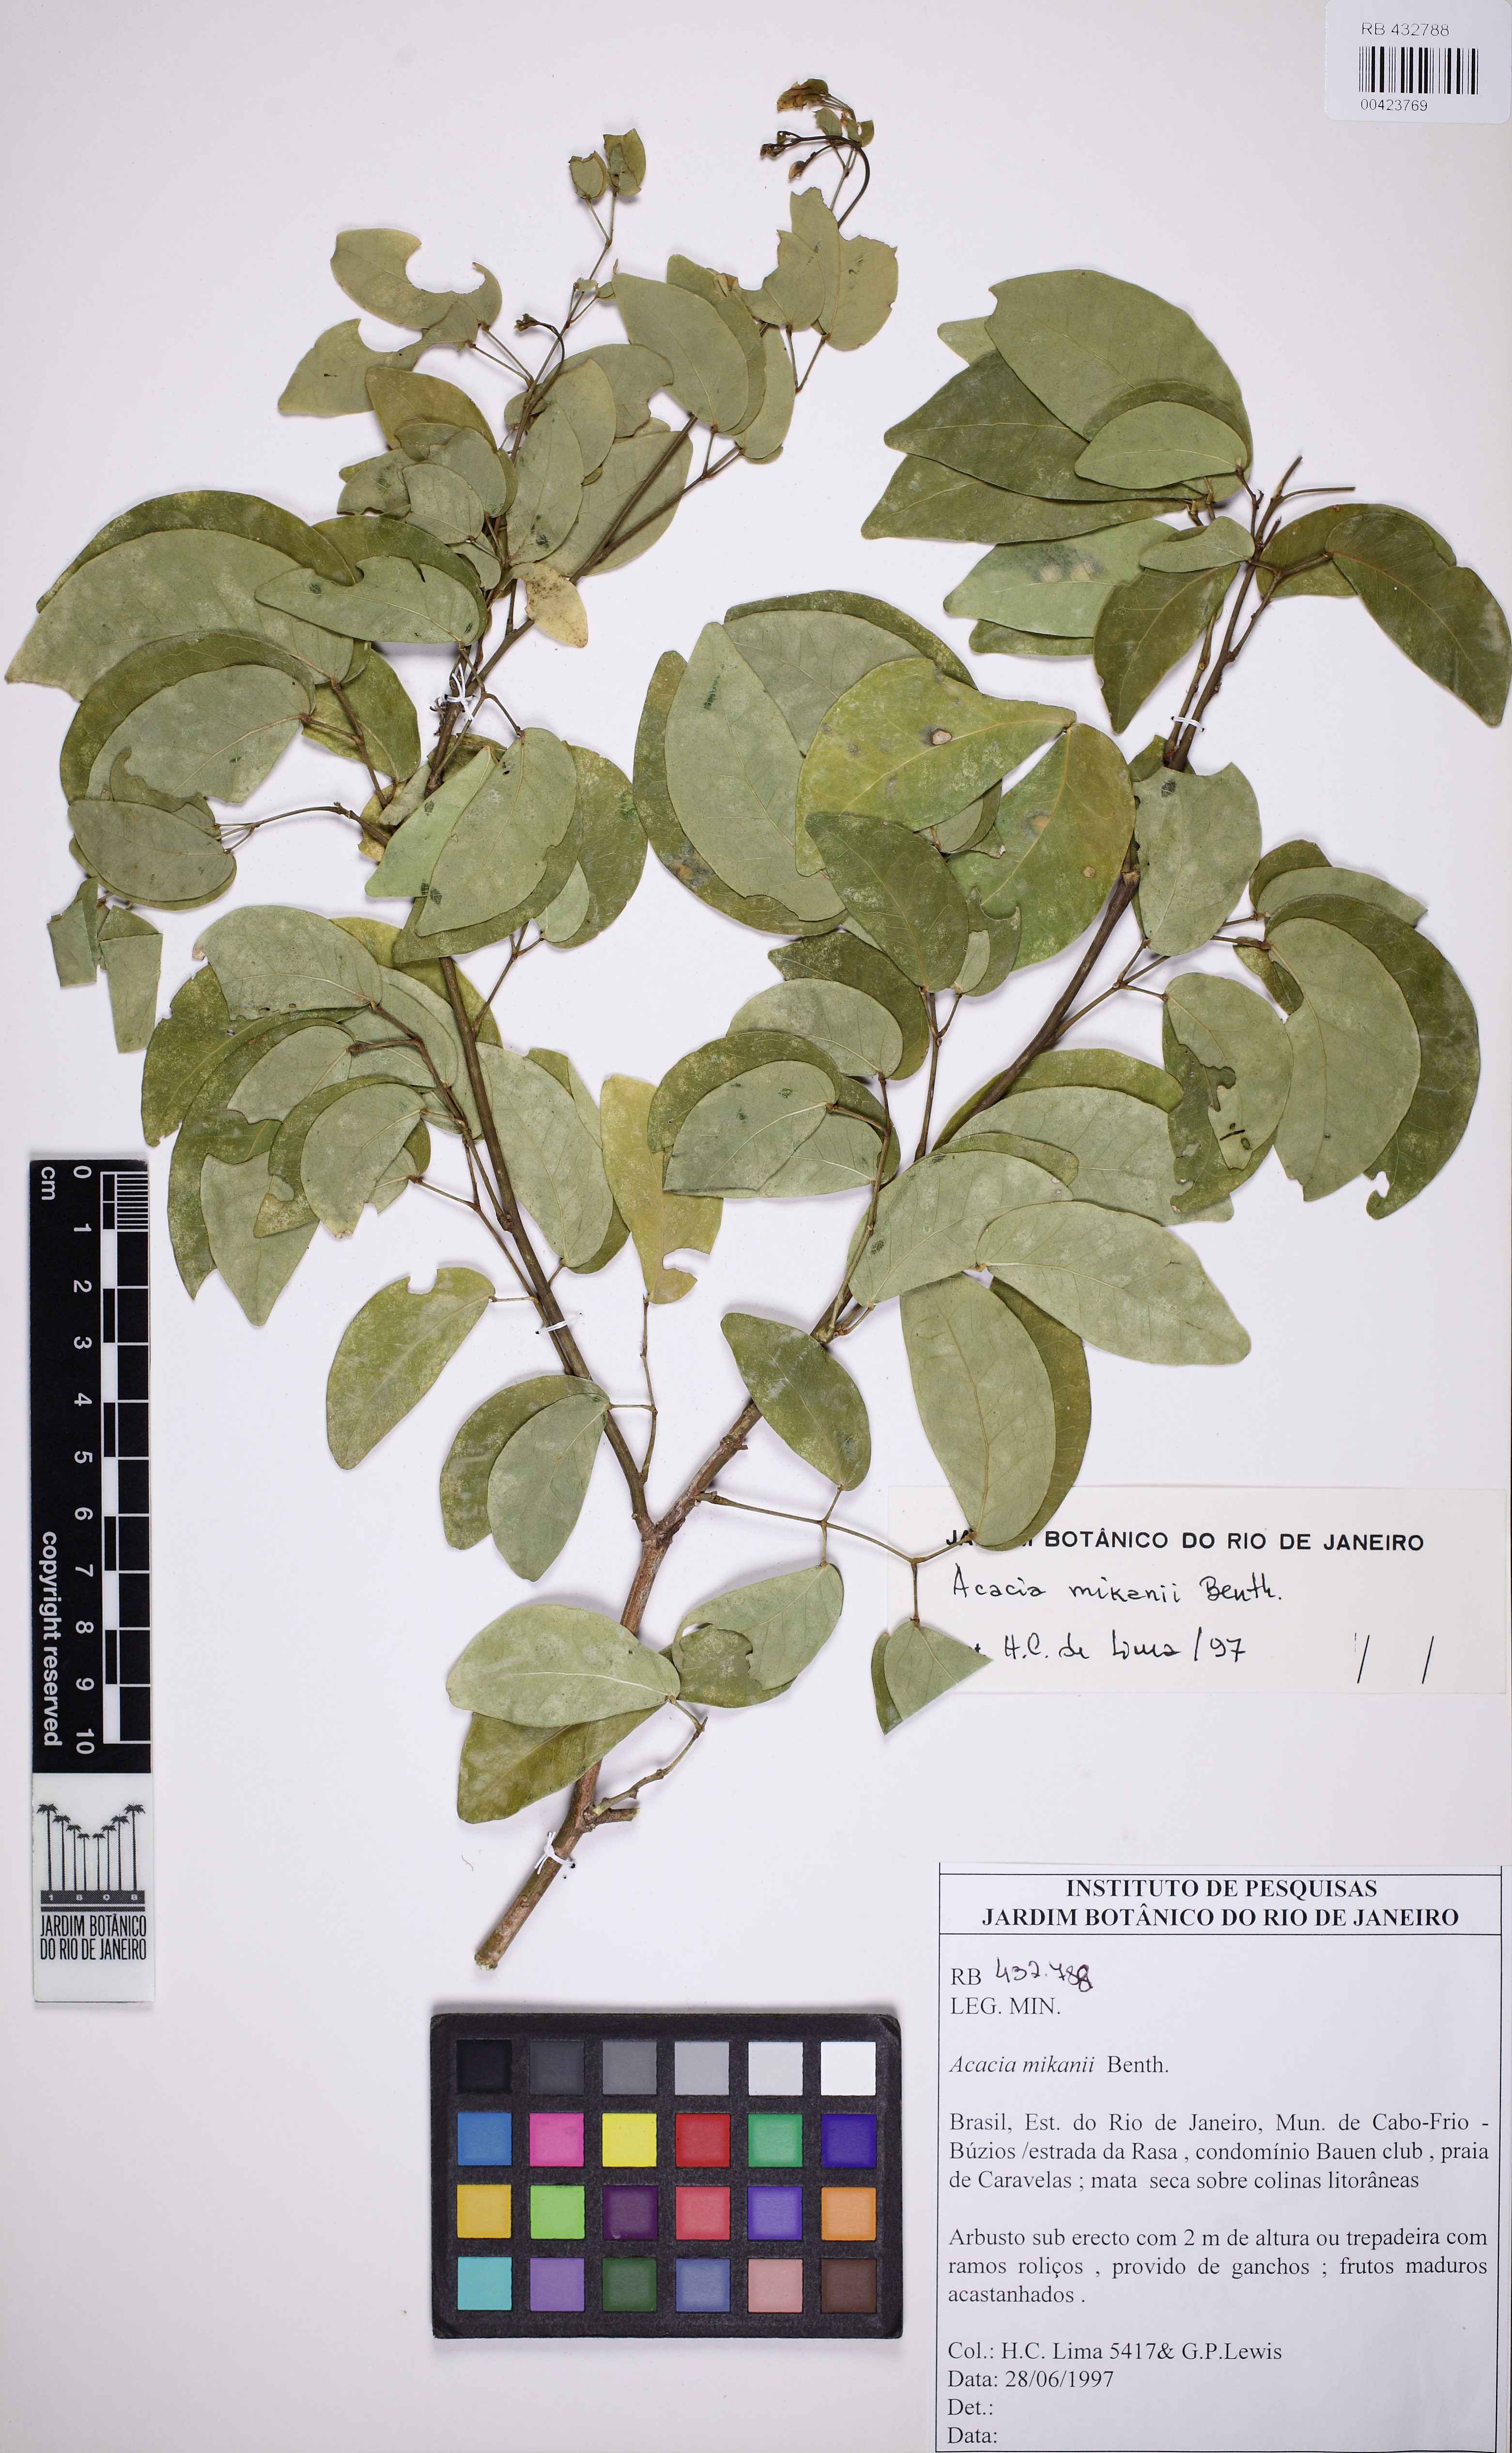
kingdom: Plantae
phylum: Tracheophyta
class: Magnoliopsida
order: Fabales
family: Fabaceae
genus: Senegalia
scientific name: Senegalia mikanii
